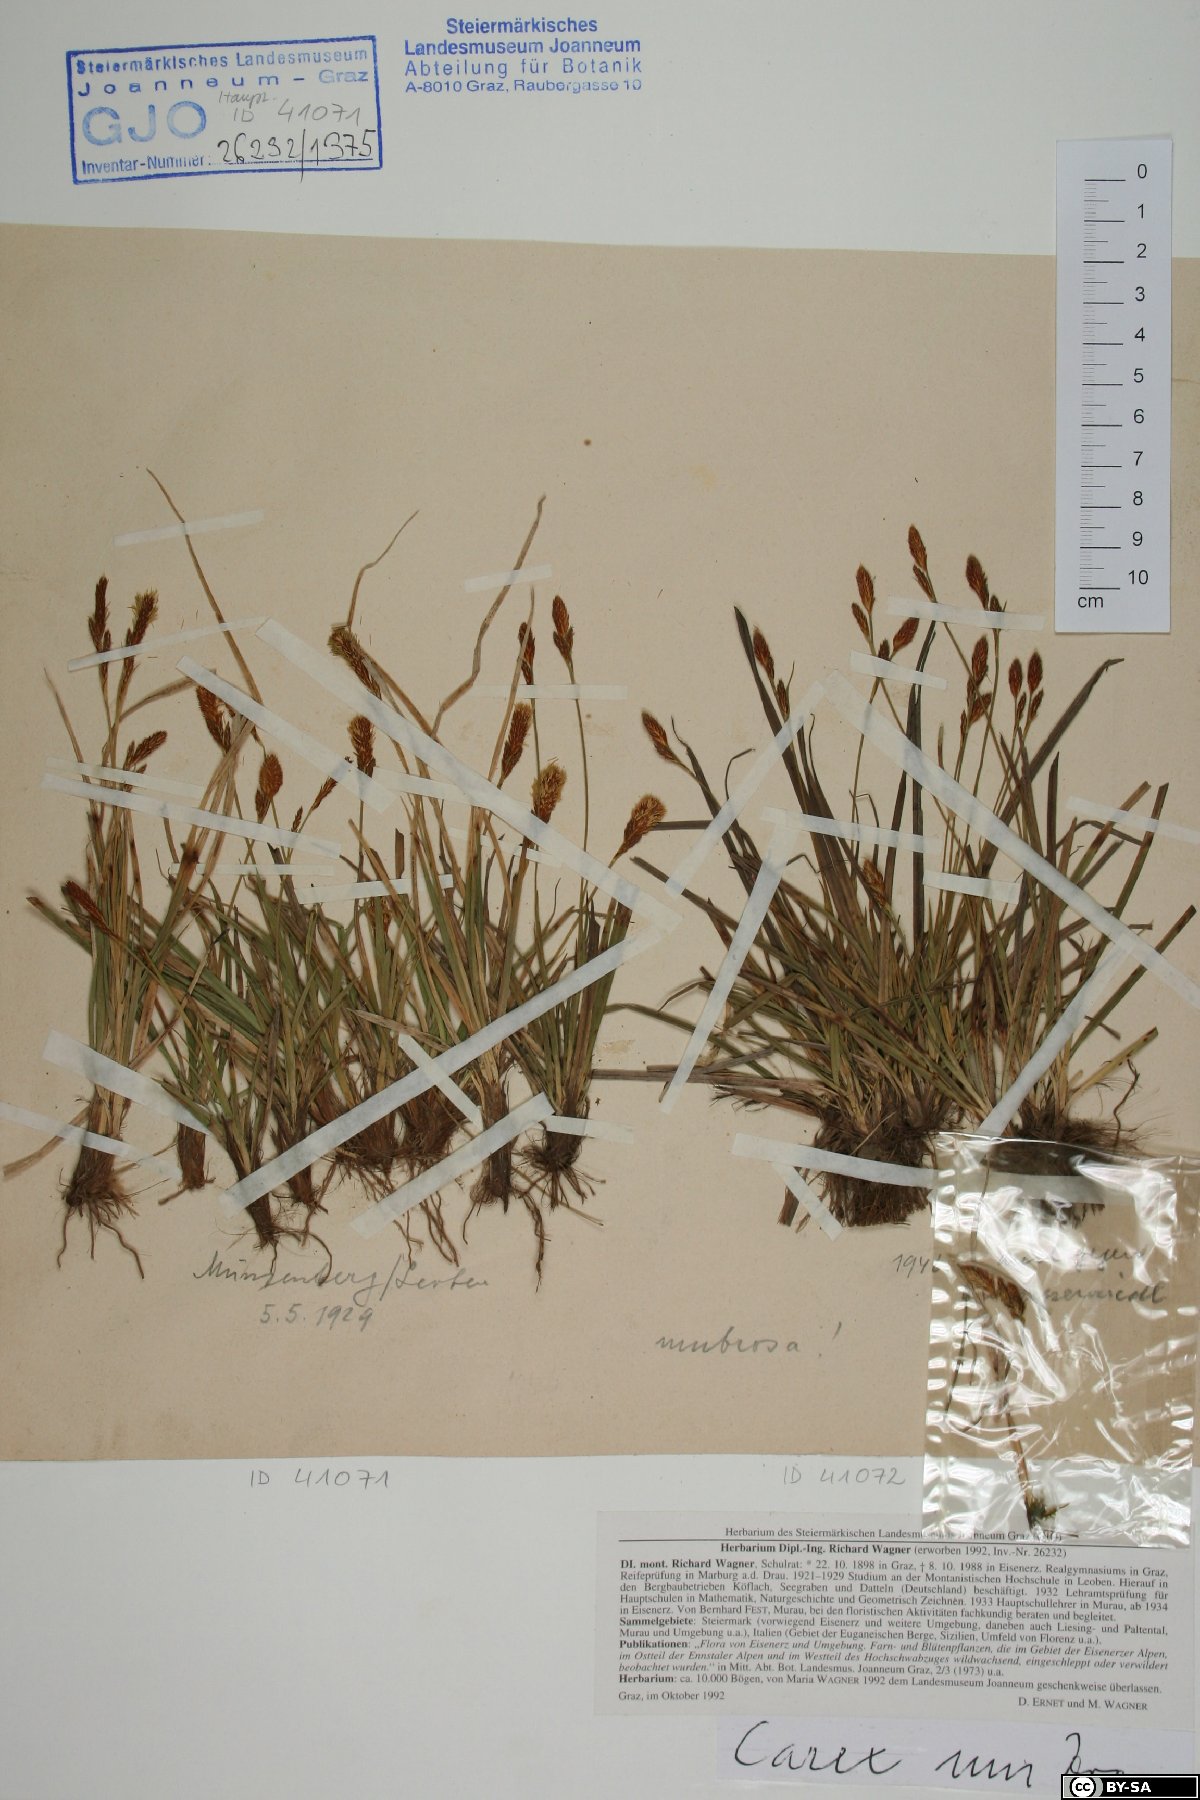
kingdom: Plantae
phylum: Tracheophyta
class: Liliopsida
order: Poales
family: Cyperaceae
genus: Carex
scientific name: Carex umbrosa
